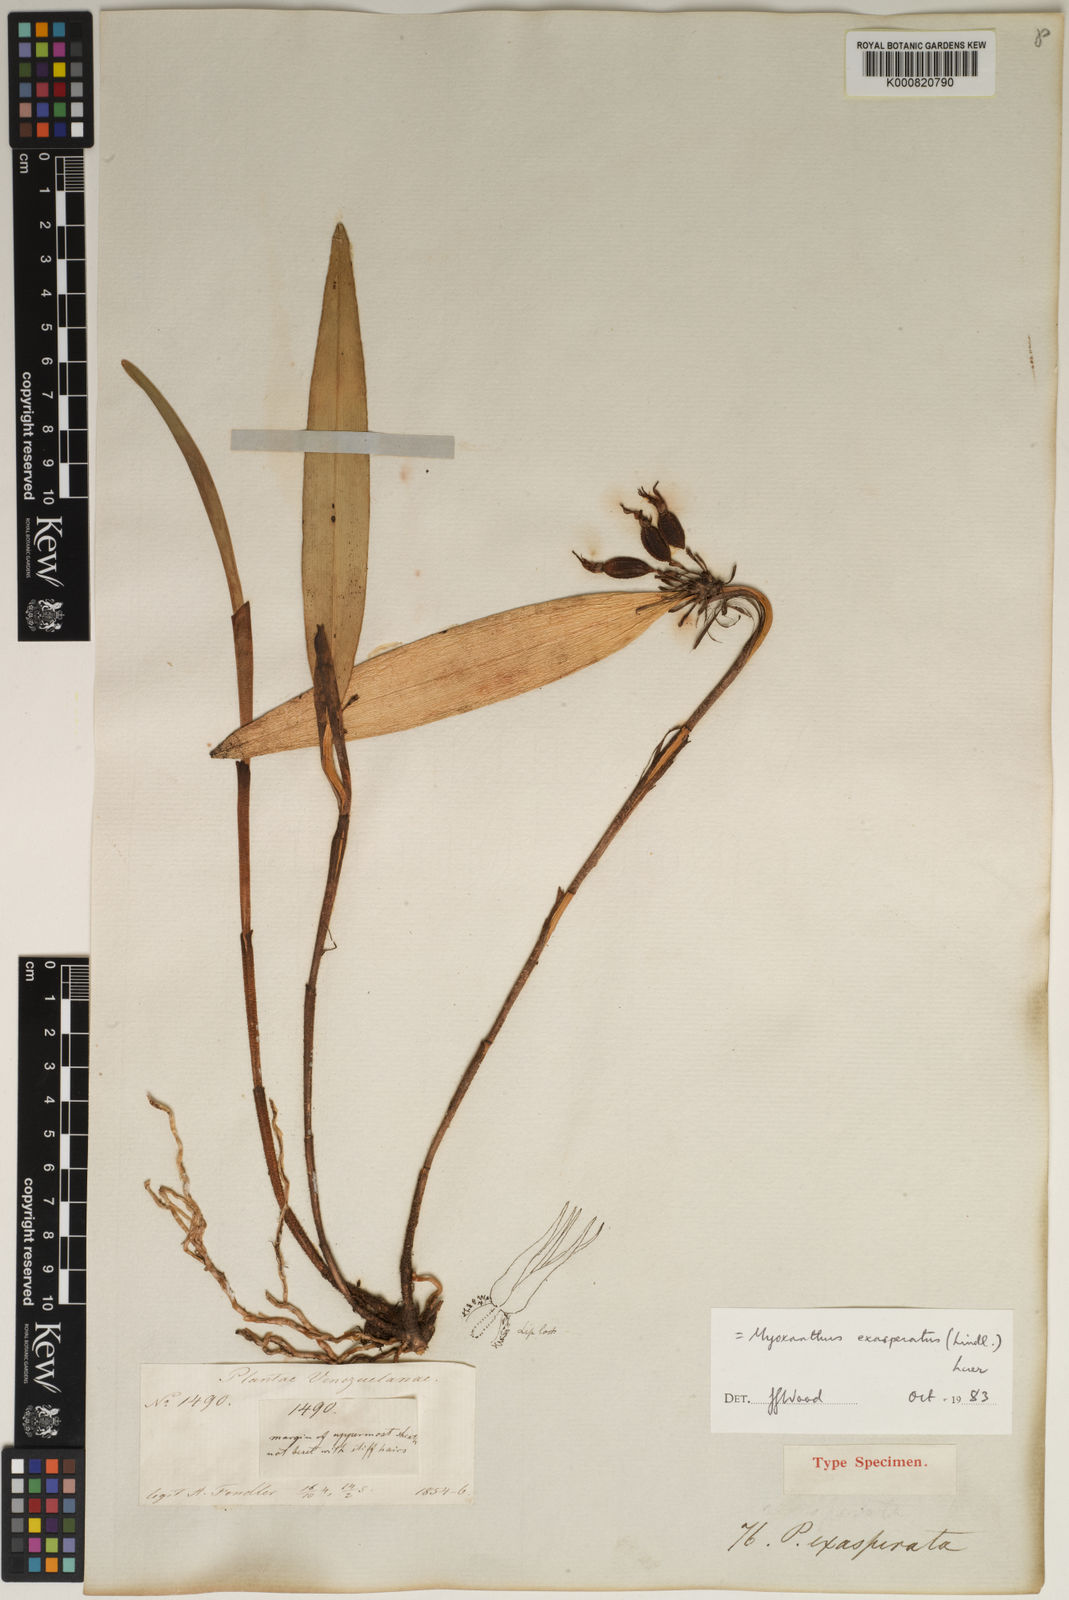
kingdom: Plantae
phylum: Tracheophyta
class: Liliopsida
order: Asparagales
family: Orchidaceae
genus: Myoxanthus
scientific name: Myoxanthus exasperatus
